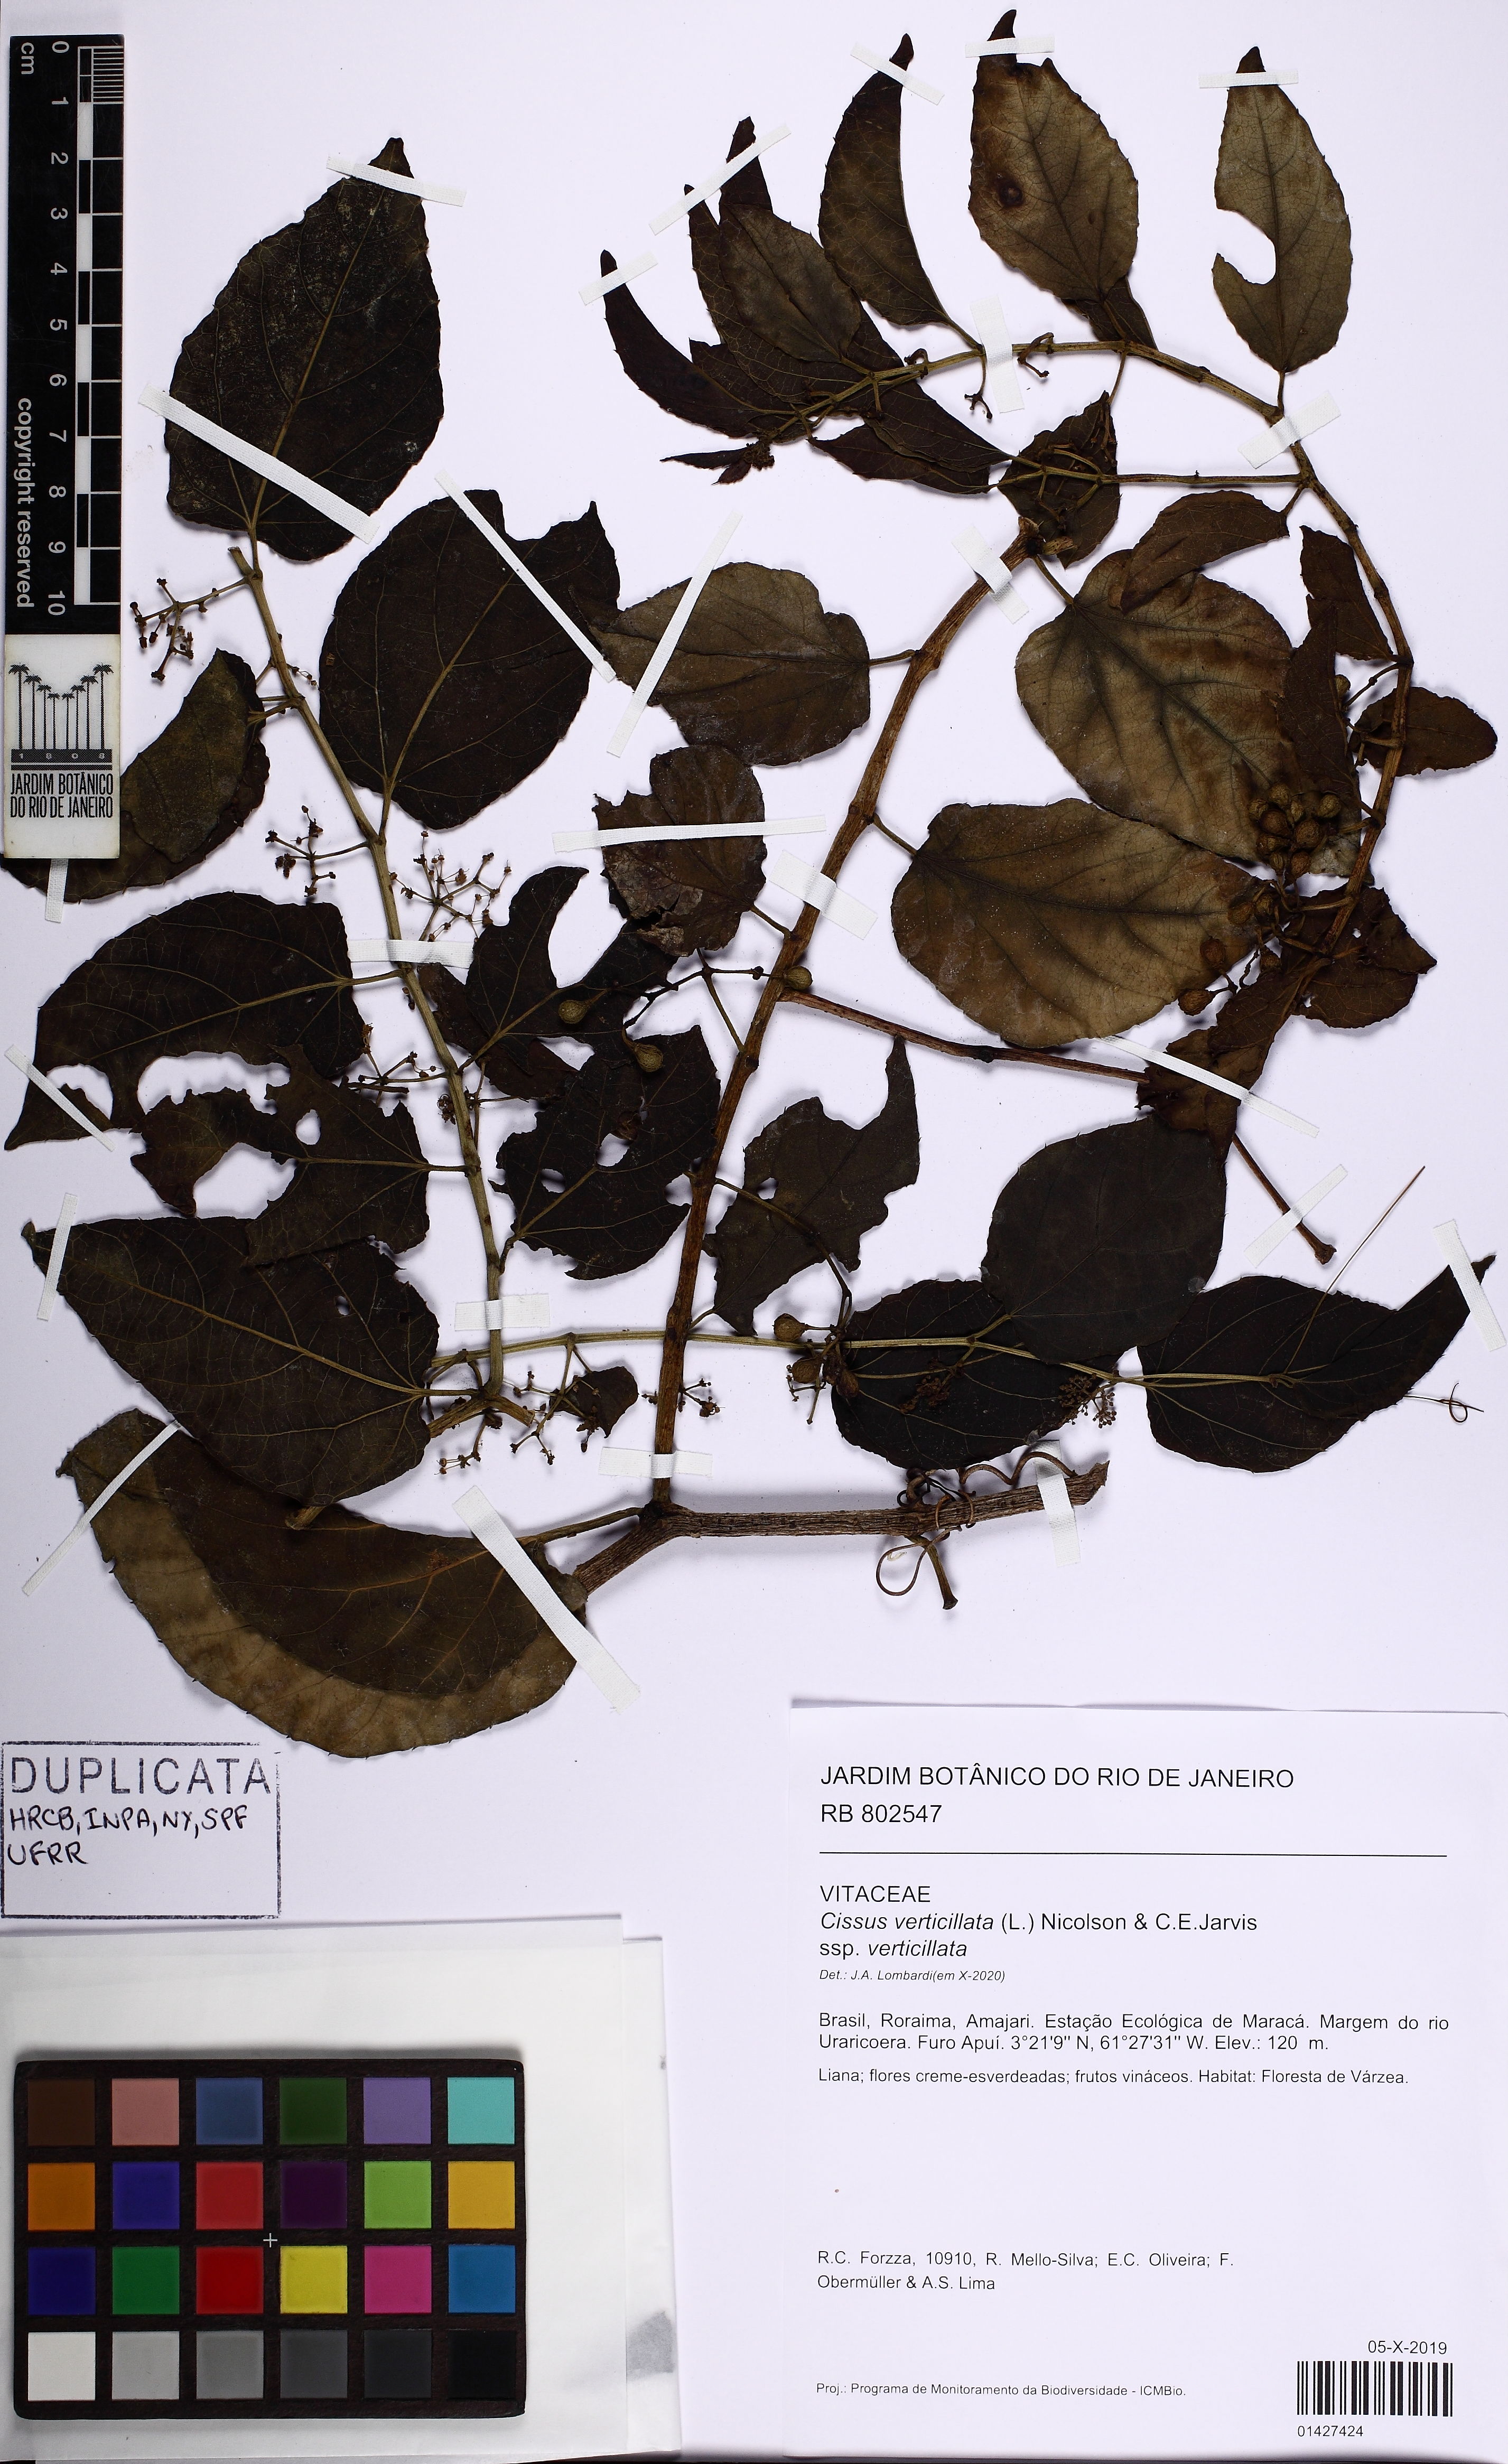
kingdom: Plantae
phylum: Tracheophyta
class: Magnoliopsida
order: Vitales
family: Vitaceae
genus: Cissus
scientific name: Cissus verticillata
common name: Princess vine
